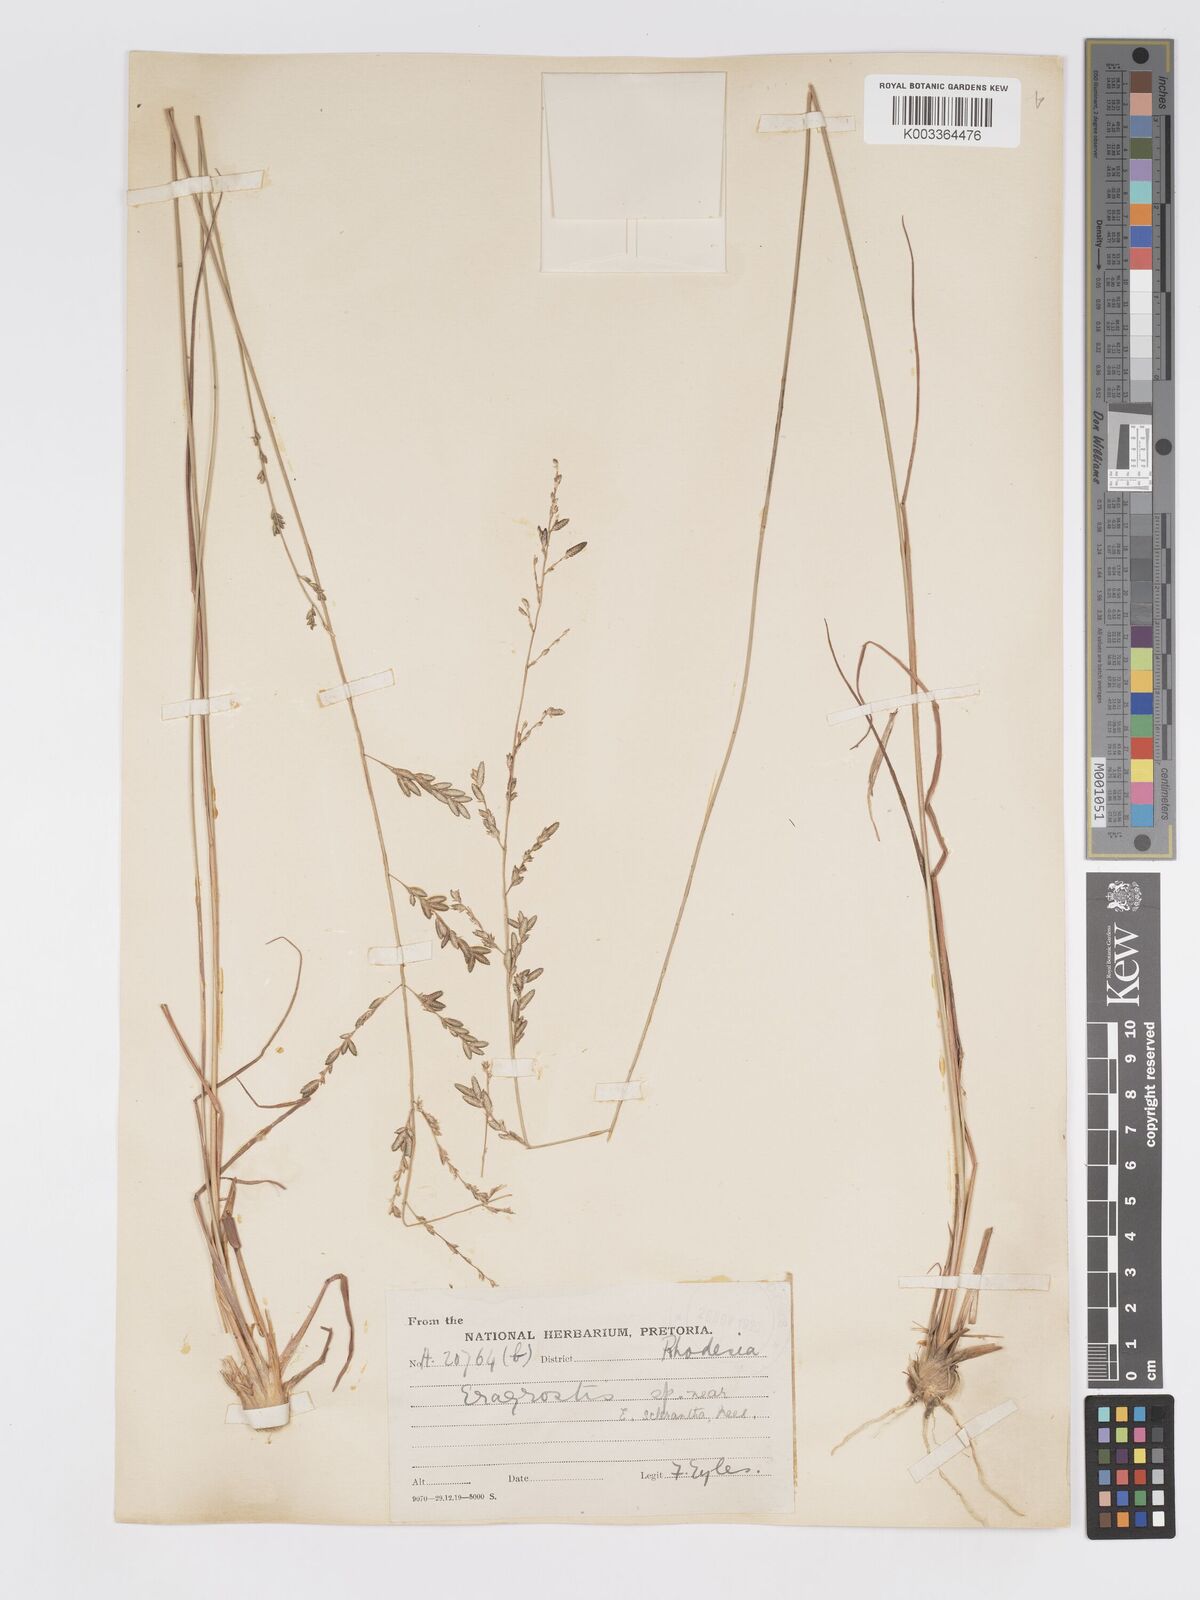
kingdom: Plantae
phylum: Tracheophyta
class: Liliopsida
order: Poales
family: Poaceae
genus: Eragrostis
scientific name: Eragrostis sclerantha
